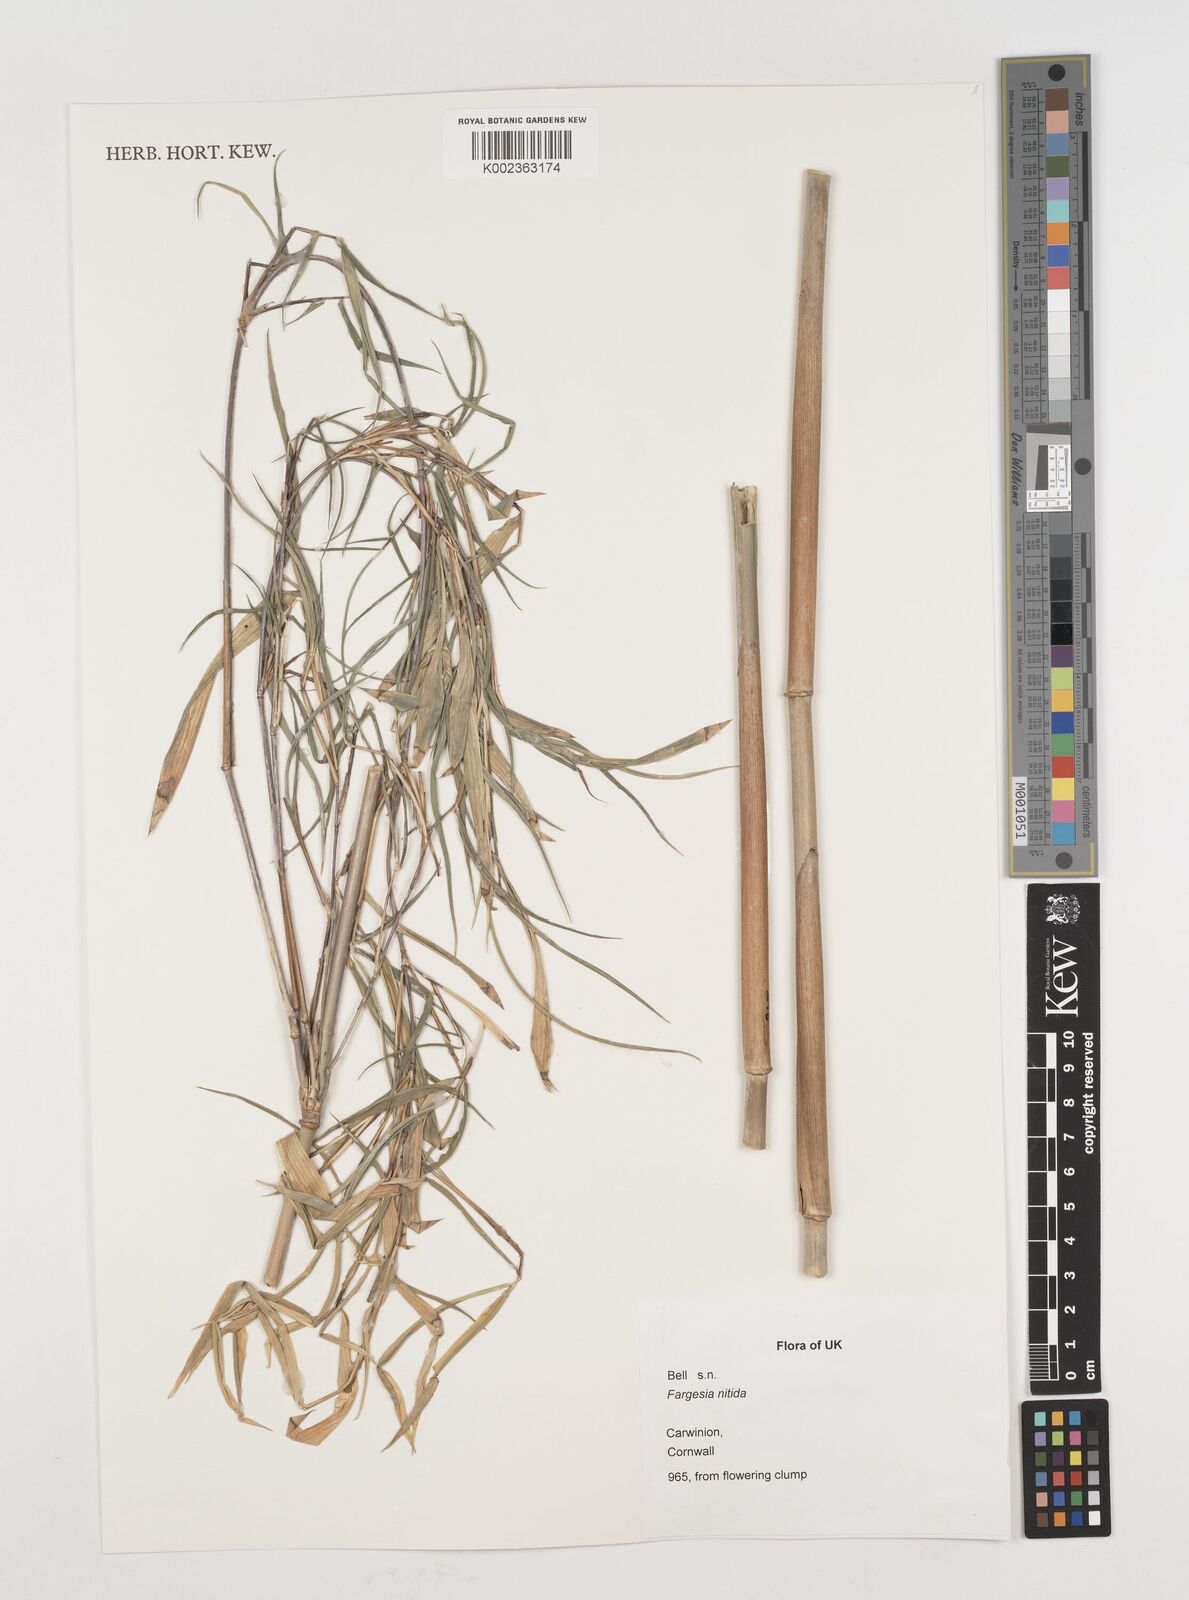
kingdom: Plantae
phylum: Tracheophyta
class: Liliopsida
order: Poales
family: Poaceae
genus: Fargesia
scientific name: Fargesia nitida ex
